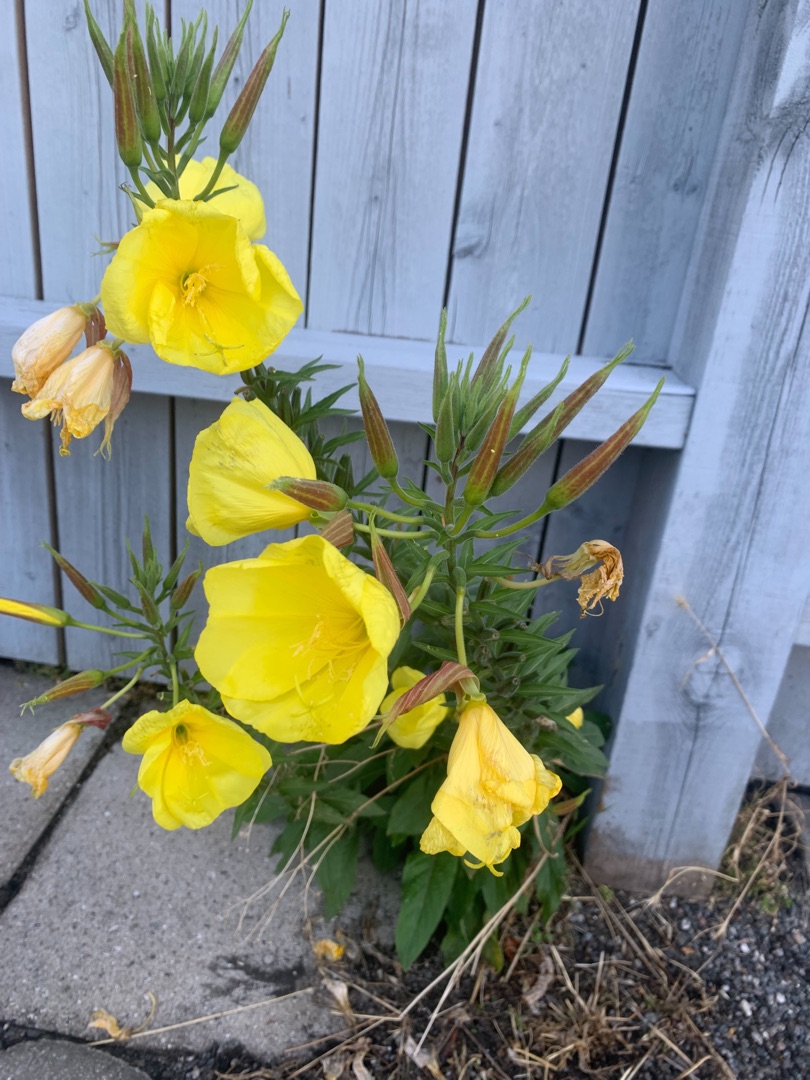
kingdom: Plantae
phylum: Tracheophyta
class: Magnoliopsida
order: Myrtales
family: Onagraceae
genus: Oenothera
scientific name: Oenothera glazioviana
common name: Kæmpe-natlys
